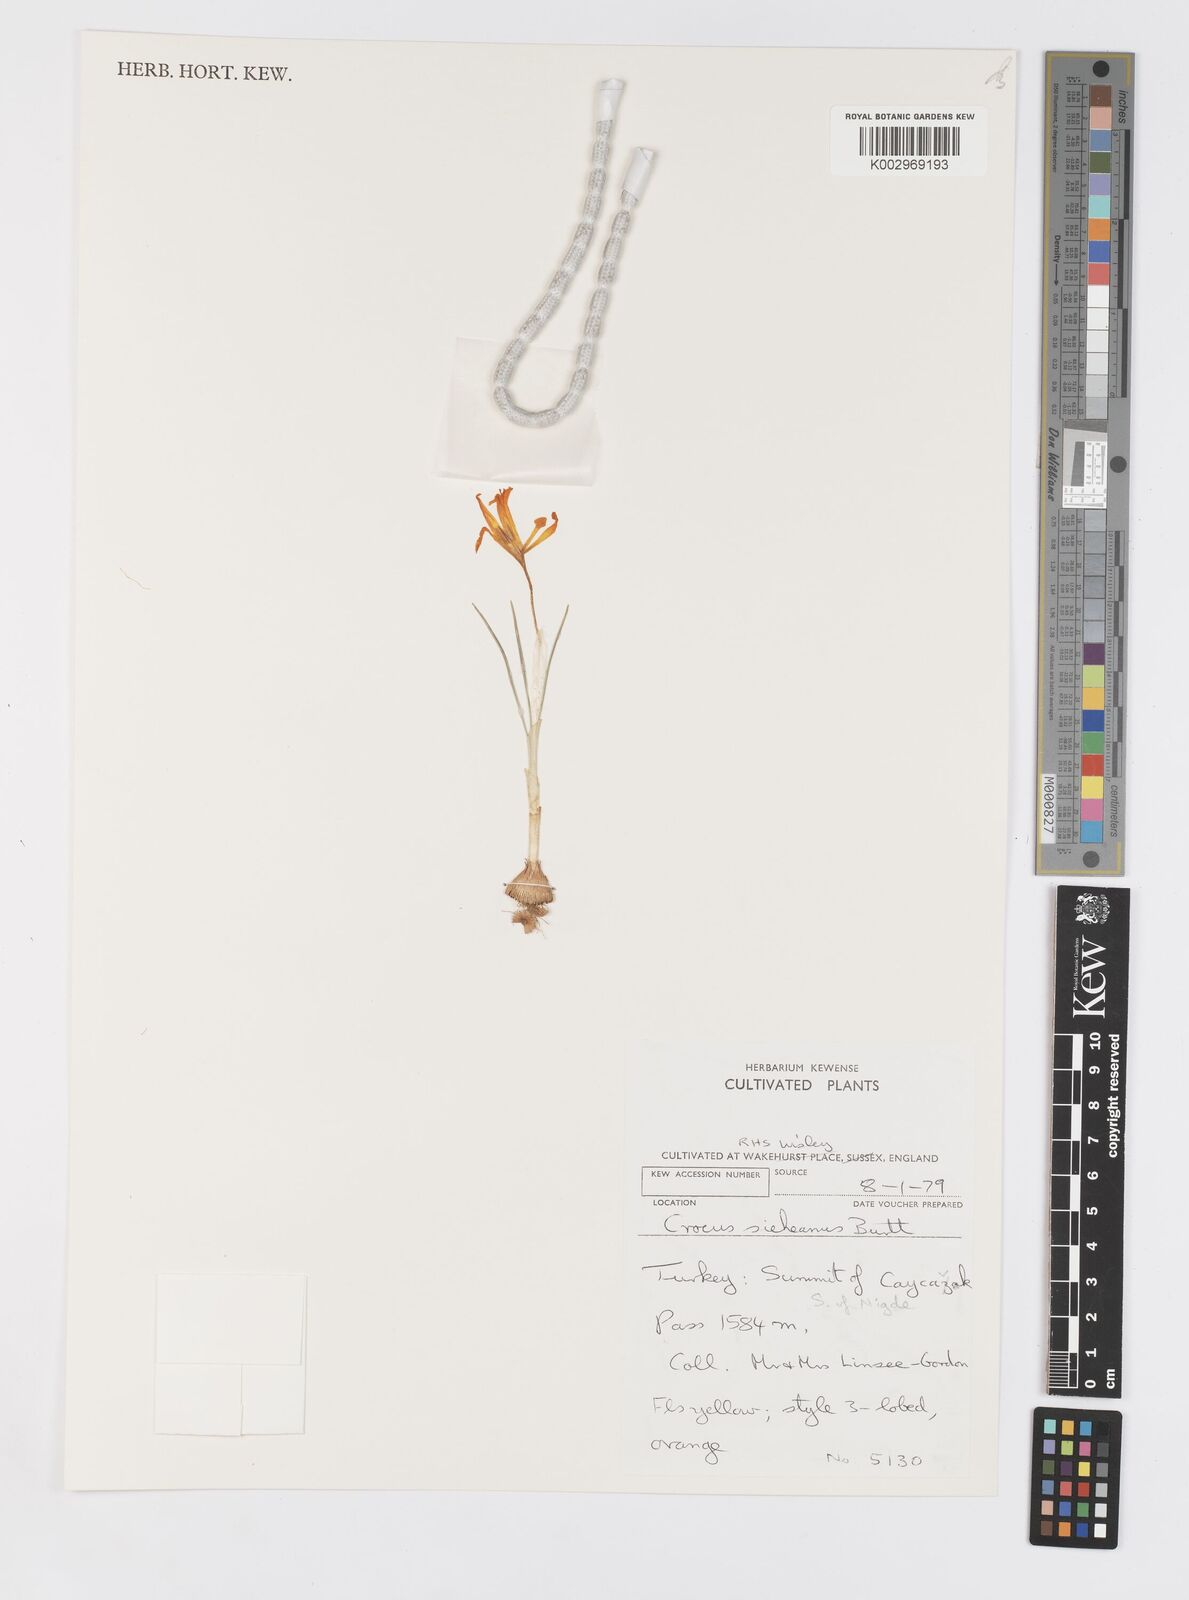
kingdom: Plantae
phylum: Tracheophyta
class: Liliopsida
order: Asparagales
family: Iridaceae
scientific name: Iridaceae
